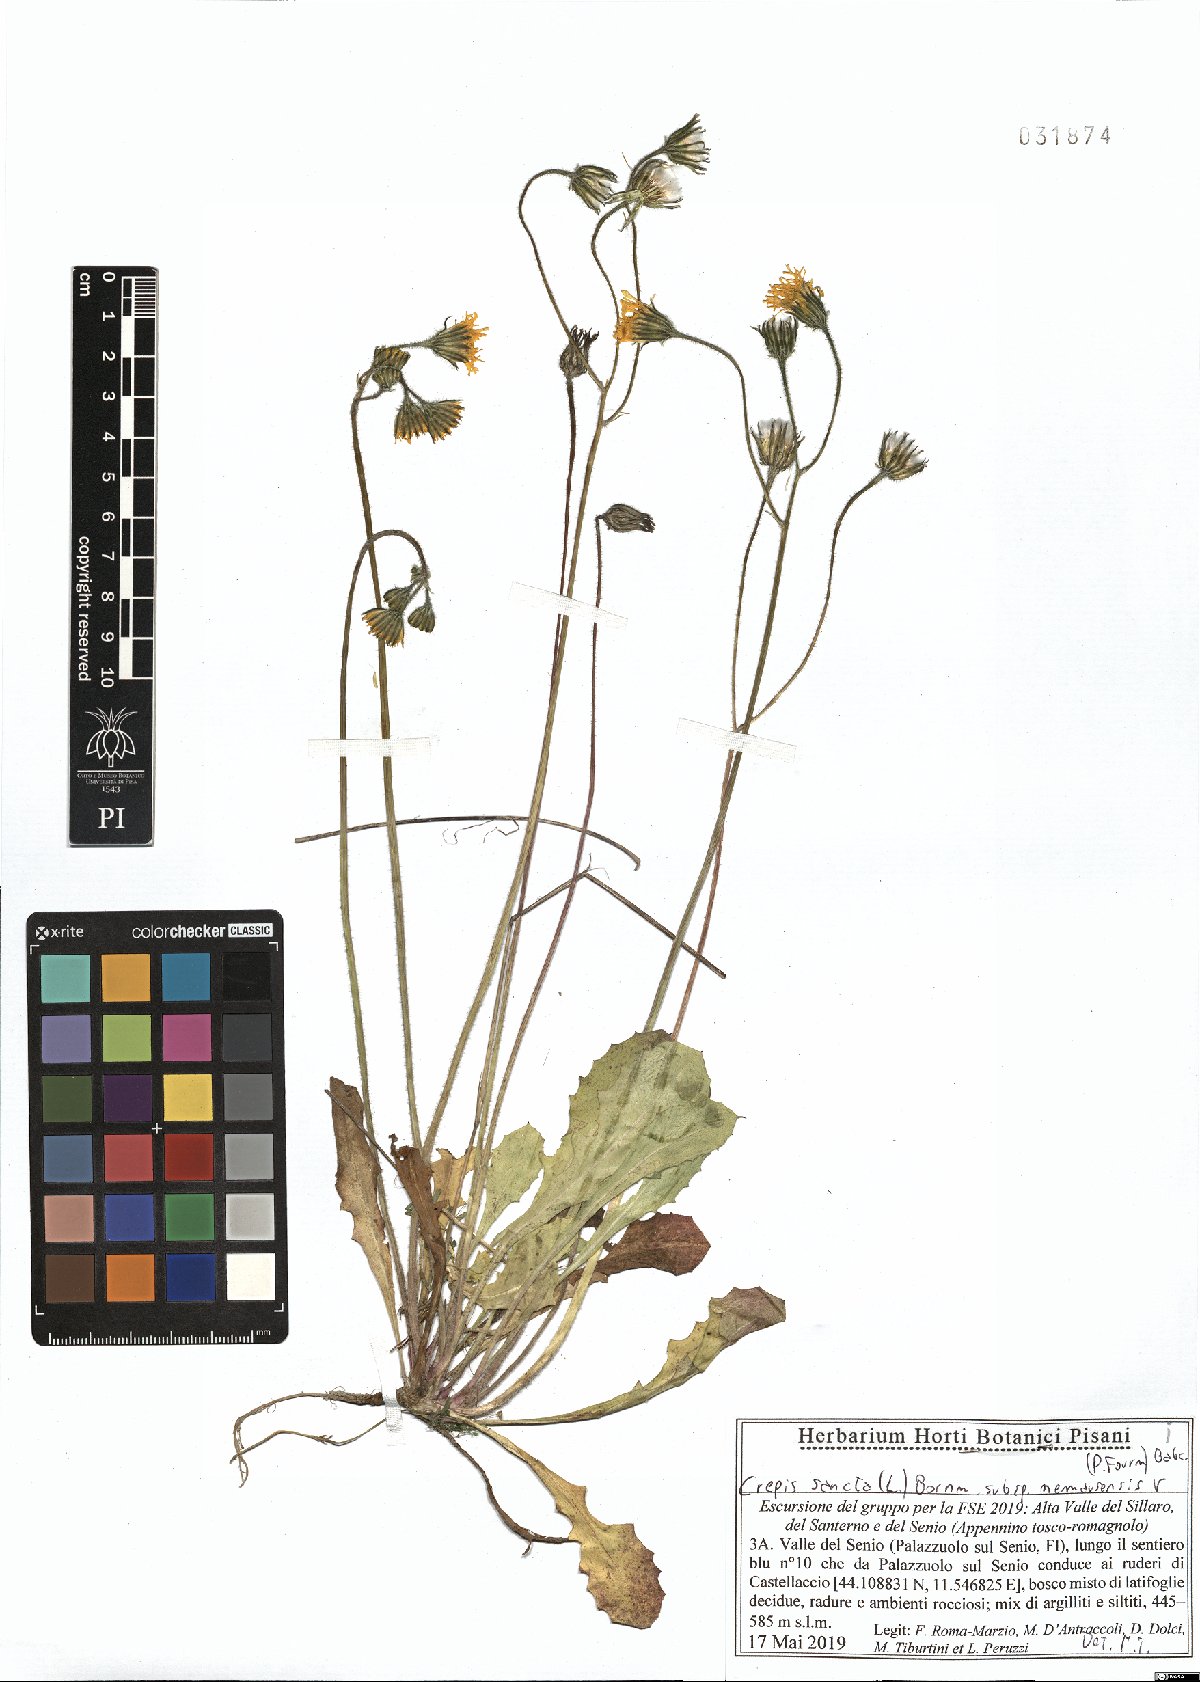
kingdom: Plantae
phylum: Tracheophyta
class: Magnoliopsida
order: Asterales
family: Asteraceae
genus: Crepis
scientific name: Crepis sancta
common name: Hawk's-beard
